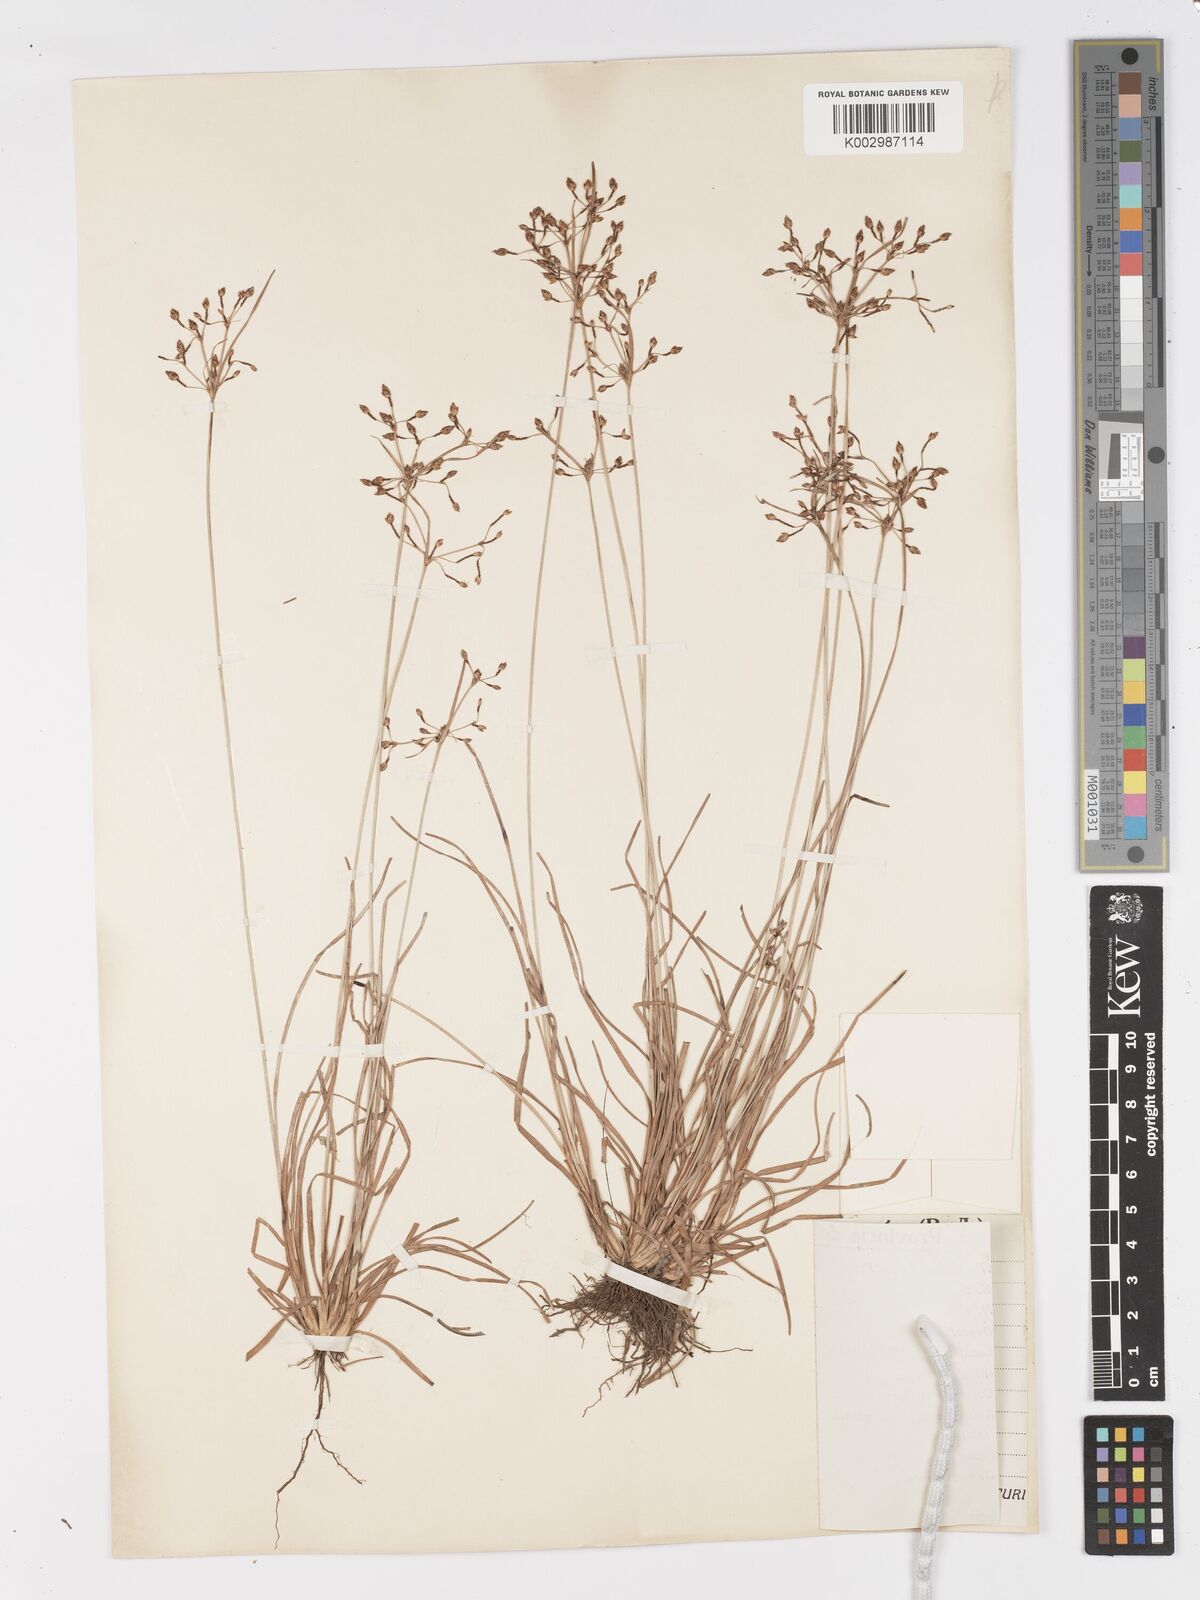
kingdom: Plantae
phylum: Tracheophyta
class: Liliopsida
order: Poales
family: Cyperaceae
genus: Fimbristylis
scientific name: Fimbristylis dichotoma
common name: Forked fimbry
